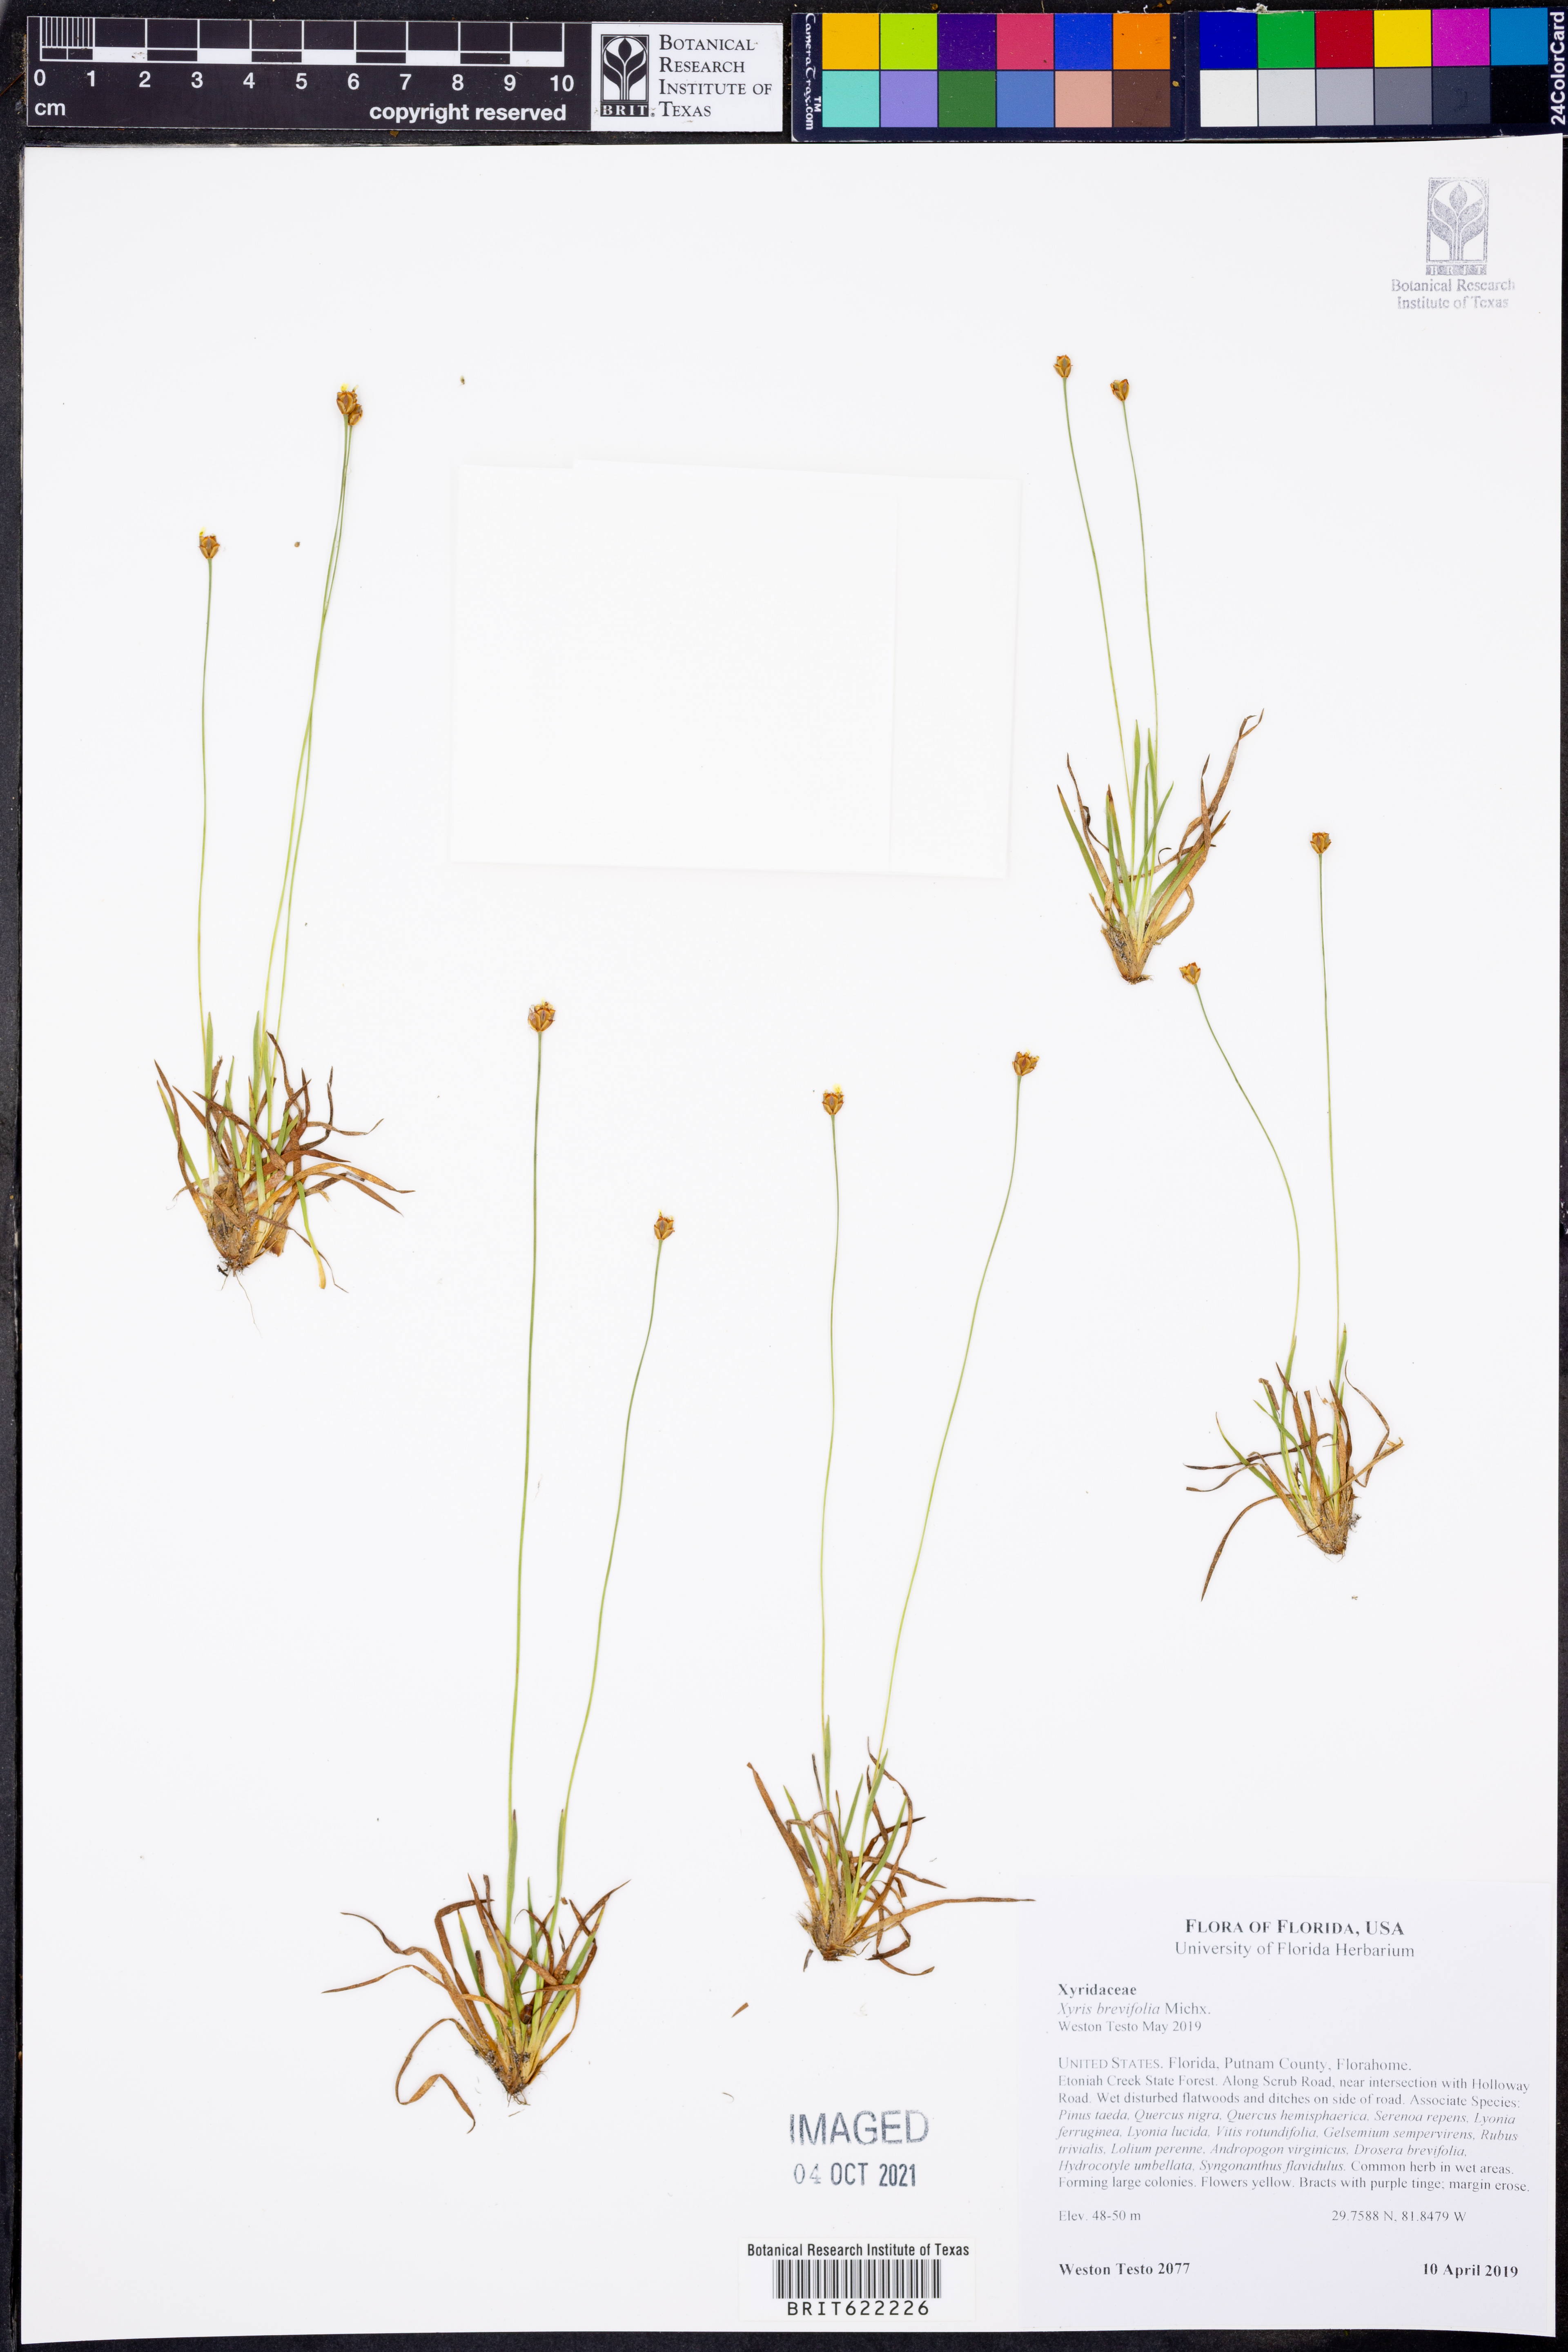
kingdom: Plantae
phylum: Tracheophyta
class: Liliopsida
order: Poales
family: Xyridaceae
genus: Xyris
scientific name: Xyris brevifolia
